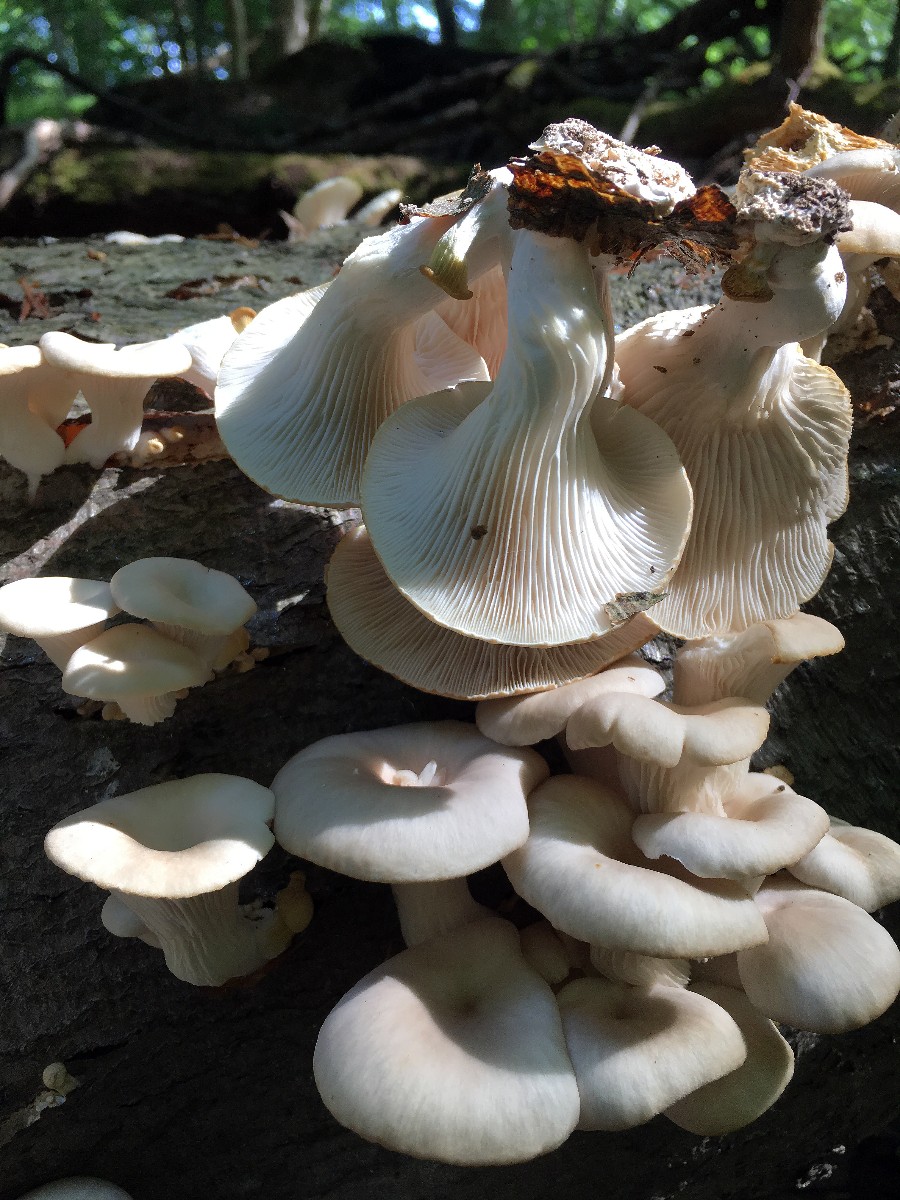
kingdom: Fungi
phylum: Basidiomycota
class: Agaricomycetes
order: Agaricales
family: Pleurotaceae
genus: Pleurotus
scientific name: Pleurotus pulmonarius
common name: sommer-østershat
